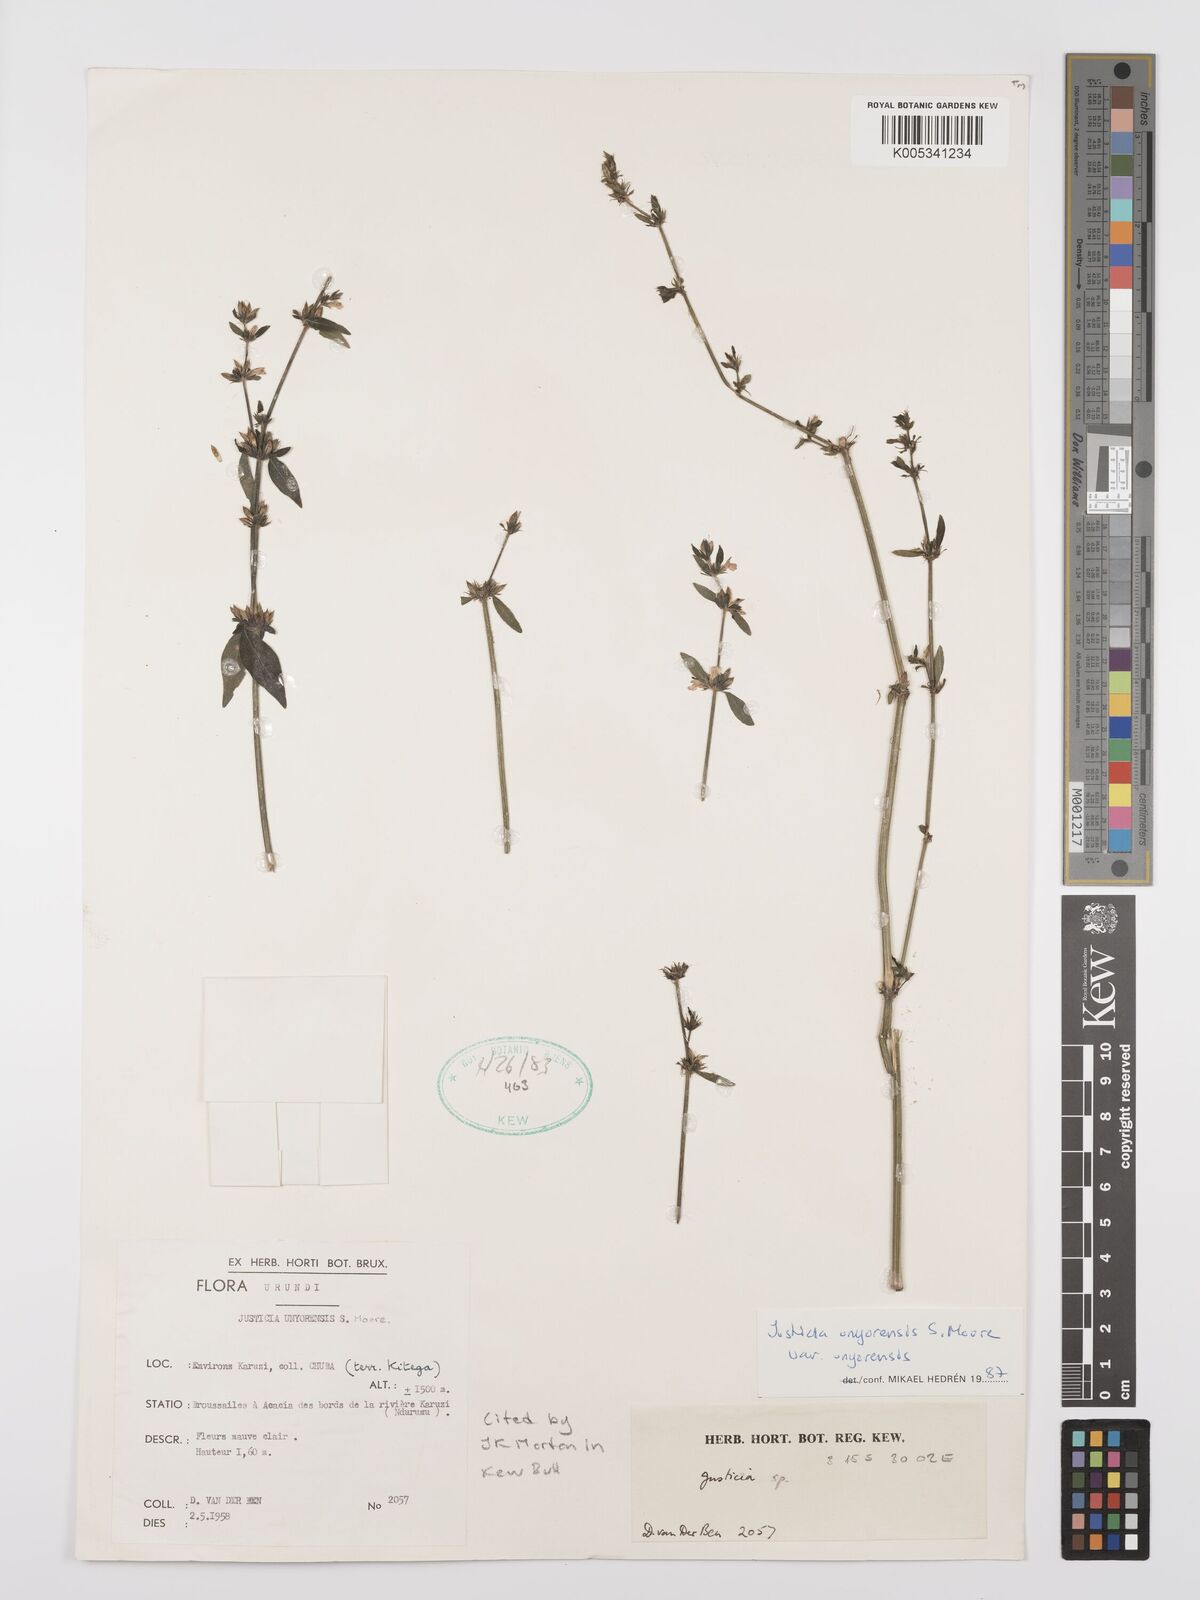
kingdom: Plantae
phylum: Tracheophyta
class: Magnoliopsida
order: Lamiales
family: Acanthaceae
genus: Justicia
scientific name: Justicia unyorensis
